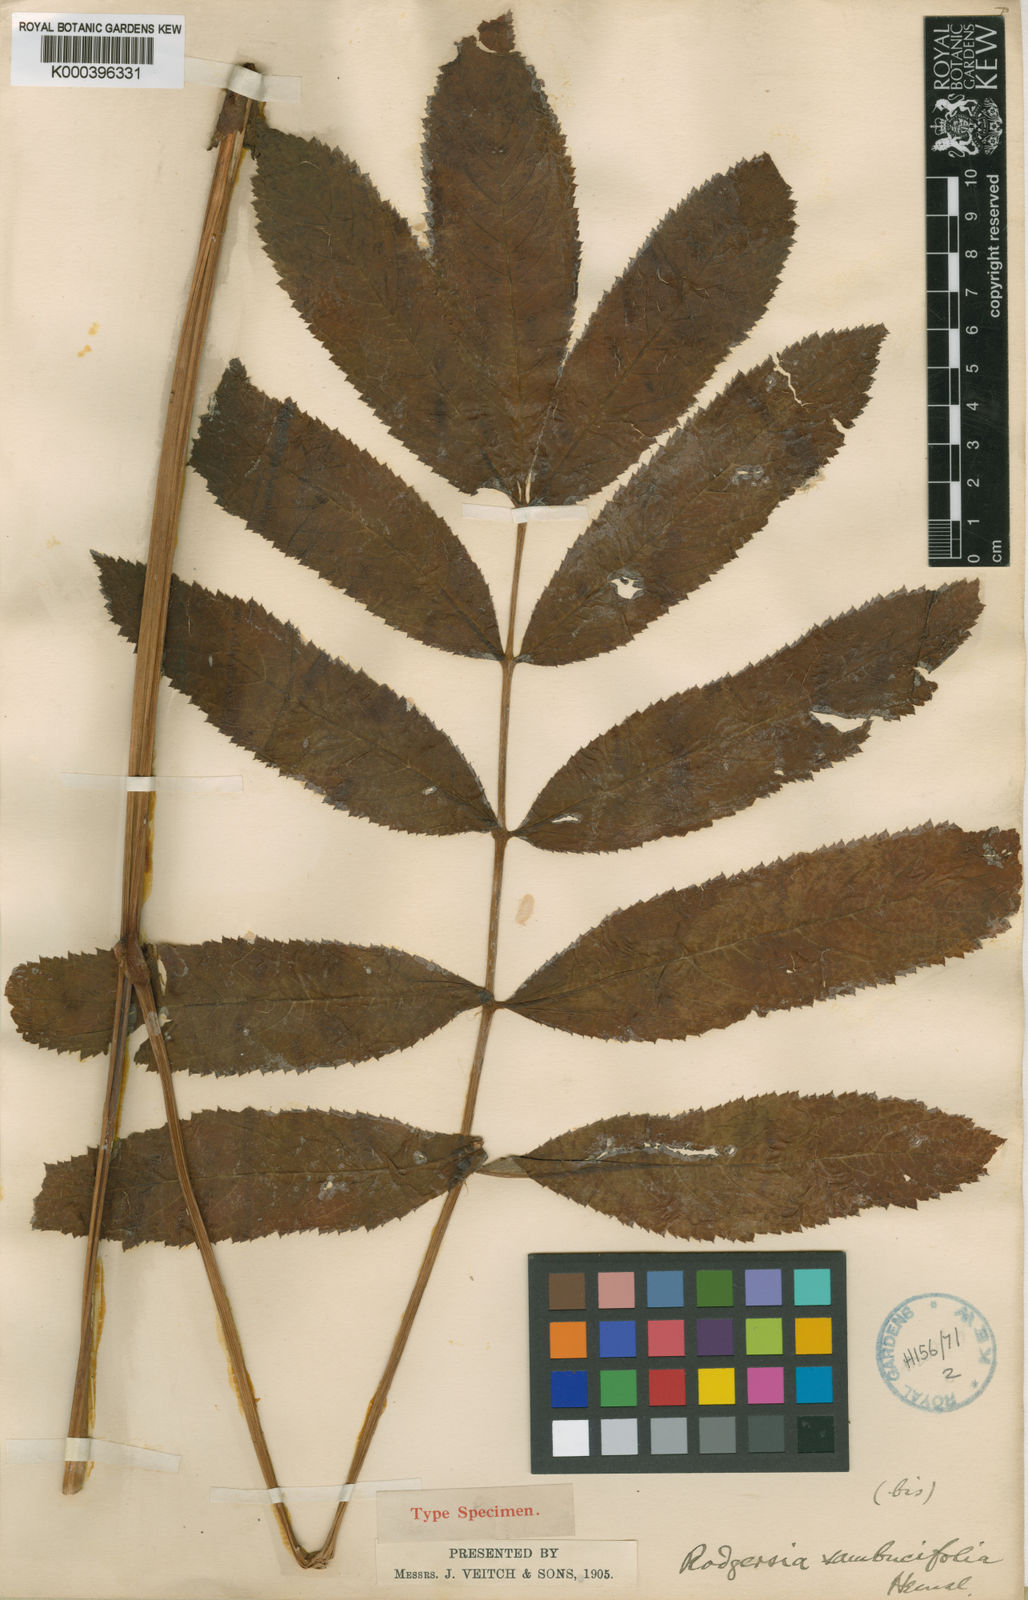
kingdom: Plantae
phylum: Tracheophyta
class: Magnoliopsida
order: Saxifragales
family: Saxifragaceae
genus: Rodgersia
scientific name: Rodgersia sambucifolia
